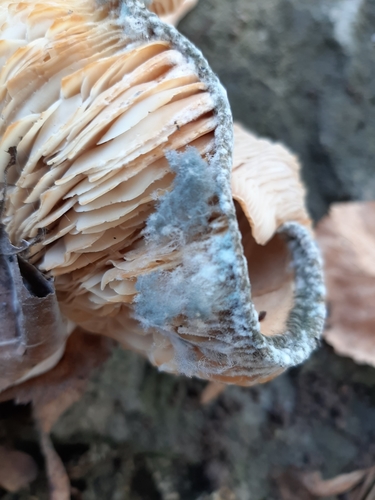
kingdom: Fungi
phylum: Mucoromycota
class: Mucoromycetes
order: Mucorales
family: Rhizopodaceae
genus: Syzygites
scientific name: Syzygites megalocarpus
